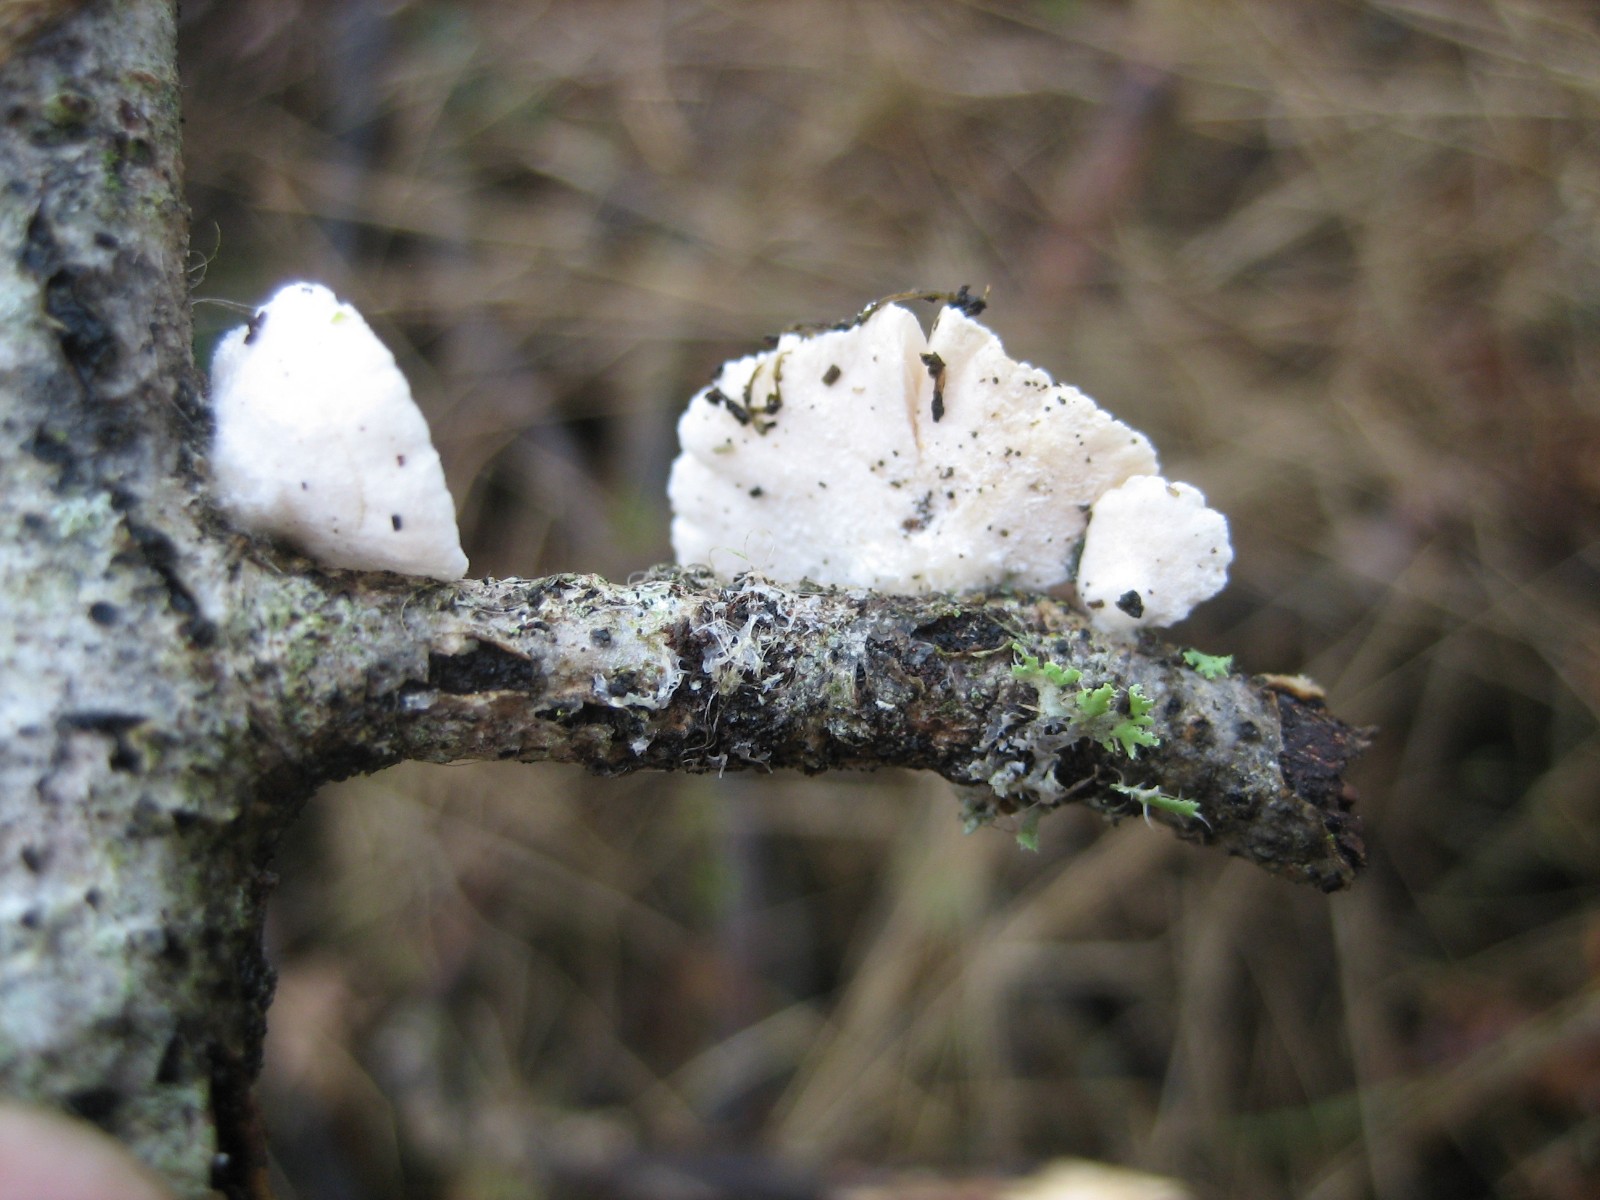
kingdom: Fungi
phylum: Basidiomycota
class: Agaricomycetes
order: Agaricales
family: Crepidotaceae
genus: Crepidotus
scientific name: Crepidotus
